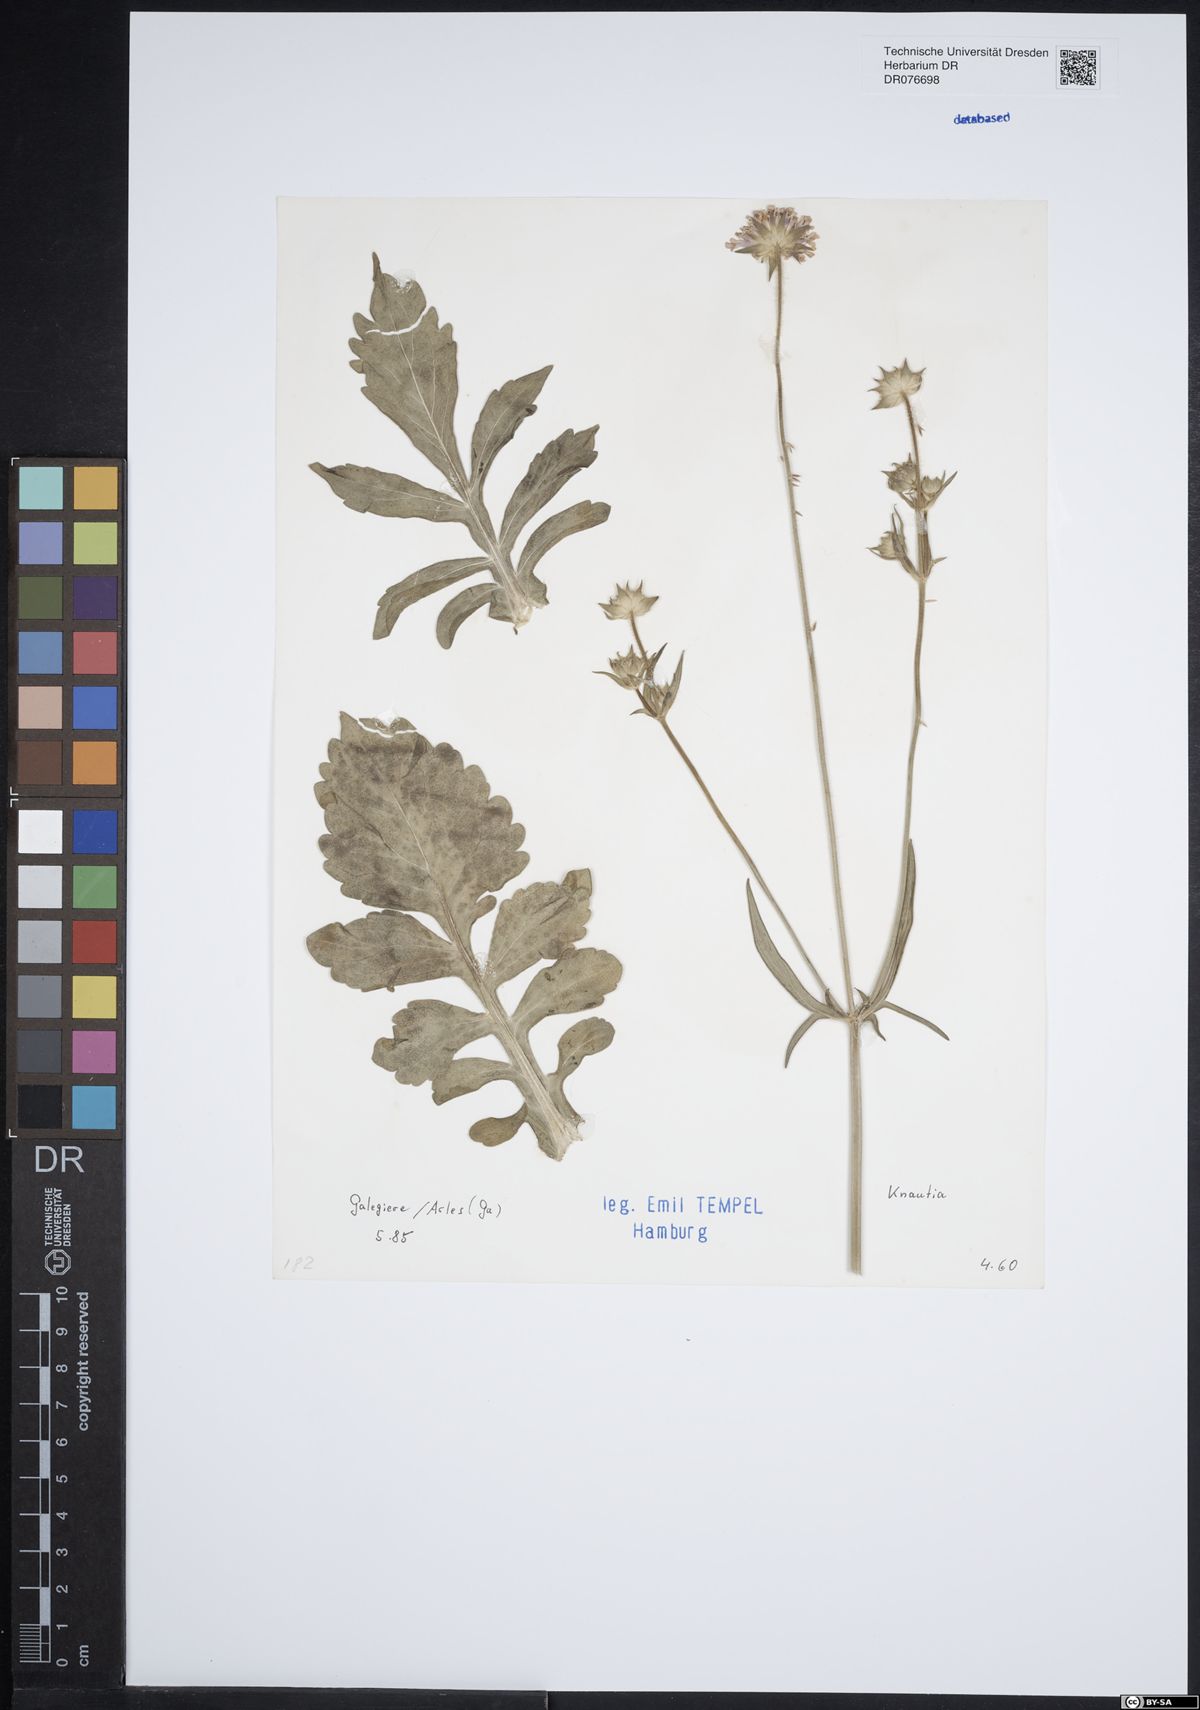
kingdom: Plantae
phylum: Tracheophyta
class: Magnoliopsida
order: Dipsacales
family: Caprifoliaceae
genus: Knautia
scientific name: Knautia
